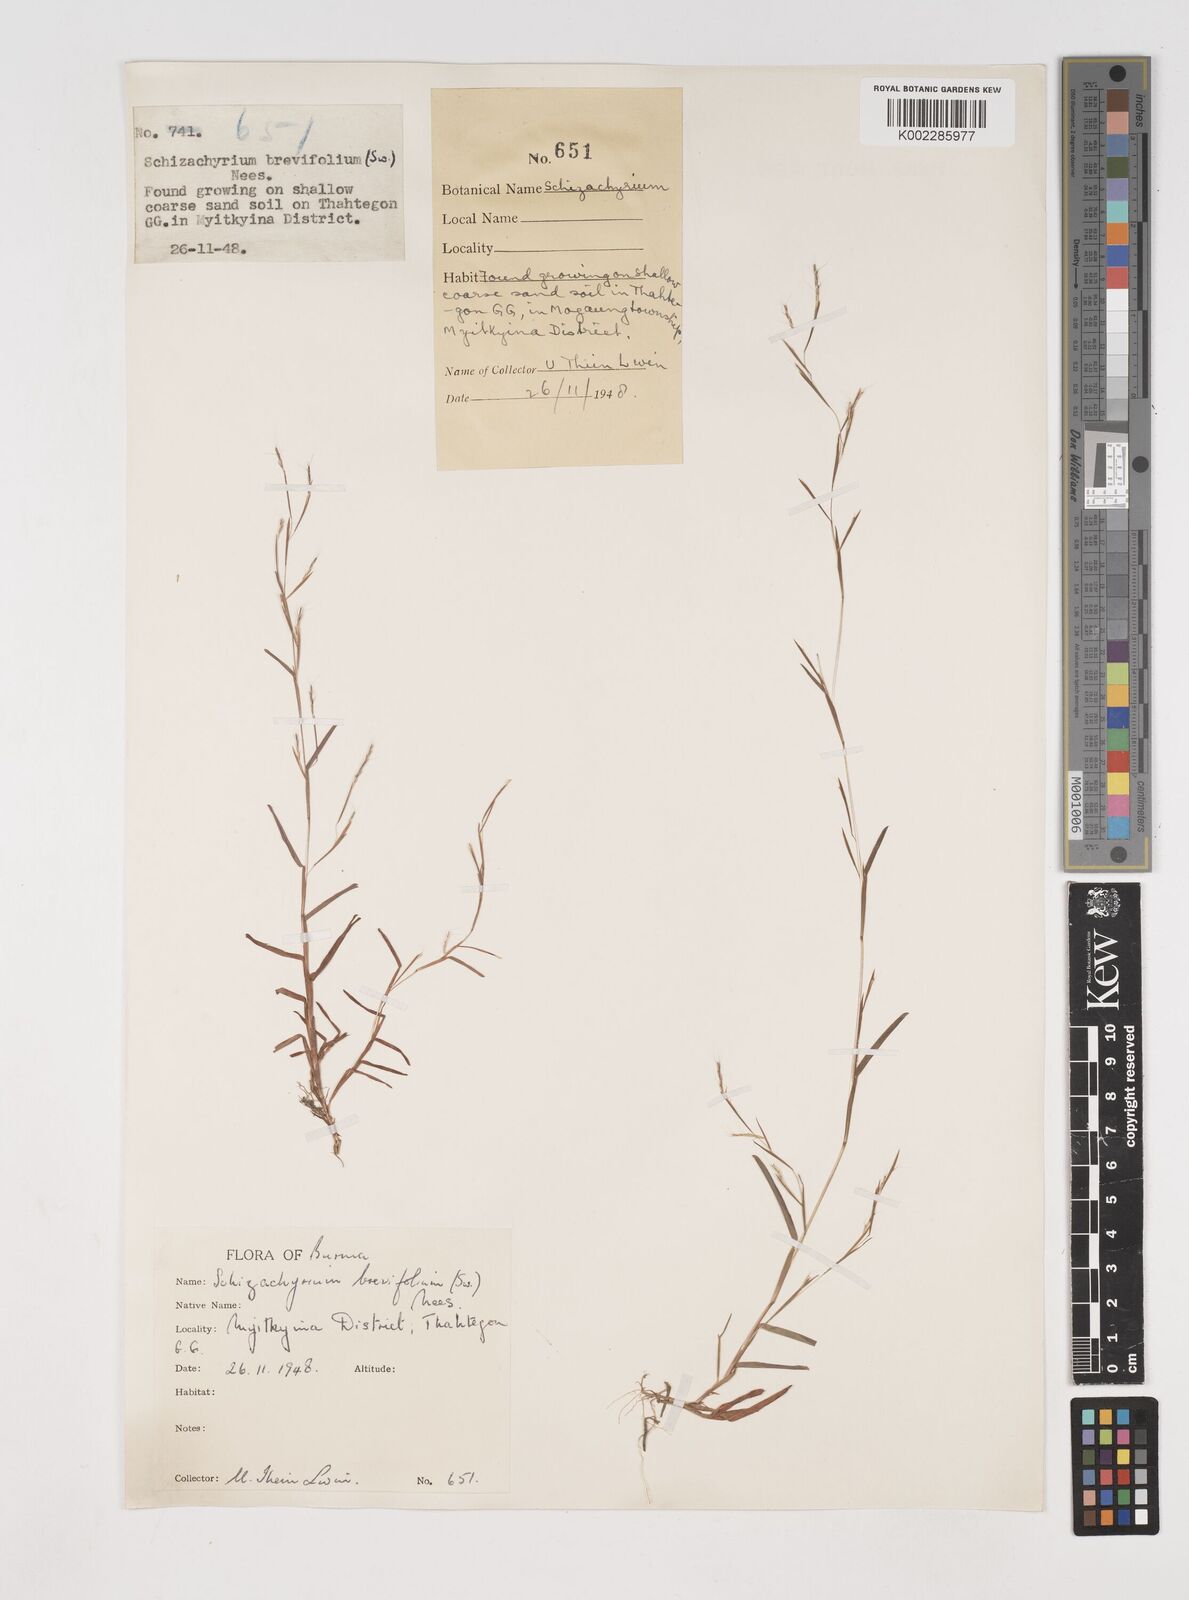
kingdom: Plantae
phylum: Tracheophyta
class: Liliopsida
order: Poales
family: Poaceae
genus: Schizachyrium
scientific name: Schizachyrium brevifolium
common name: Serillo dulce
